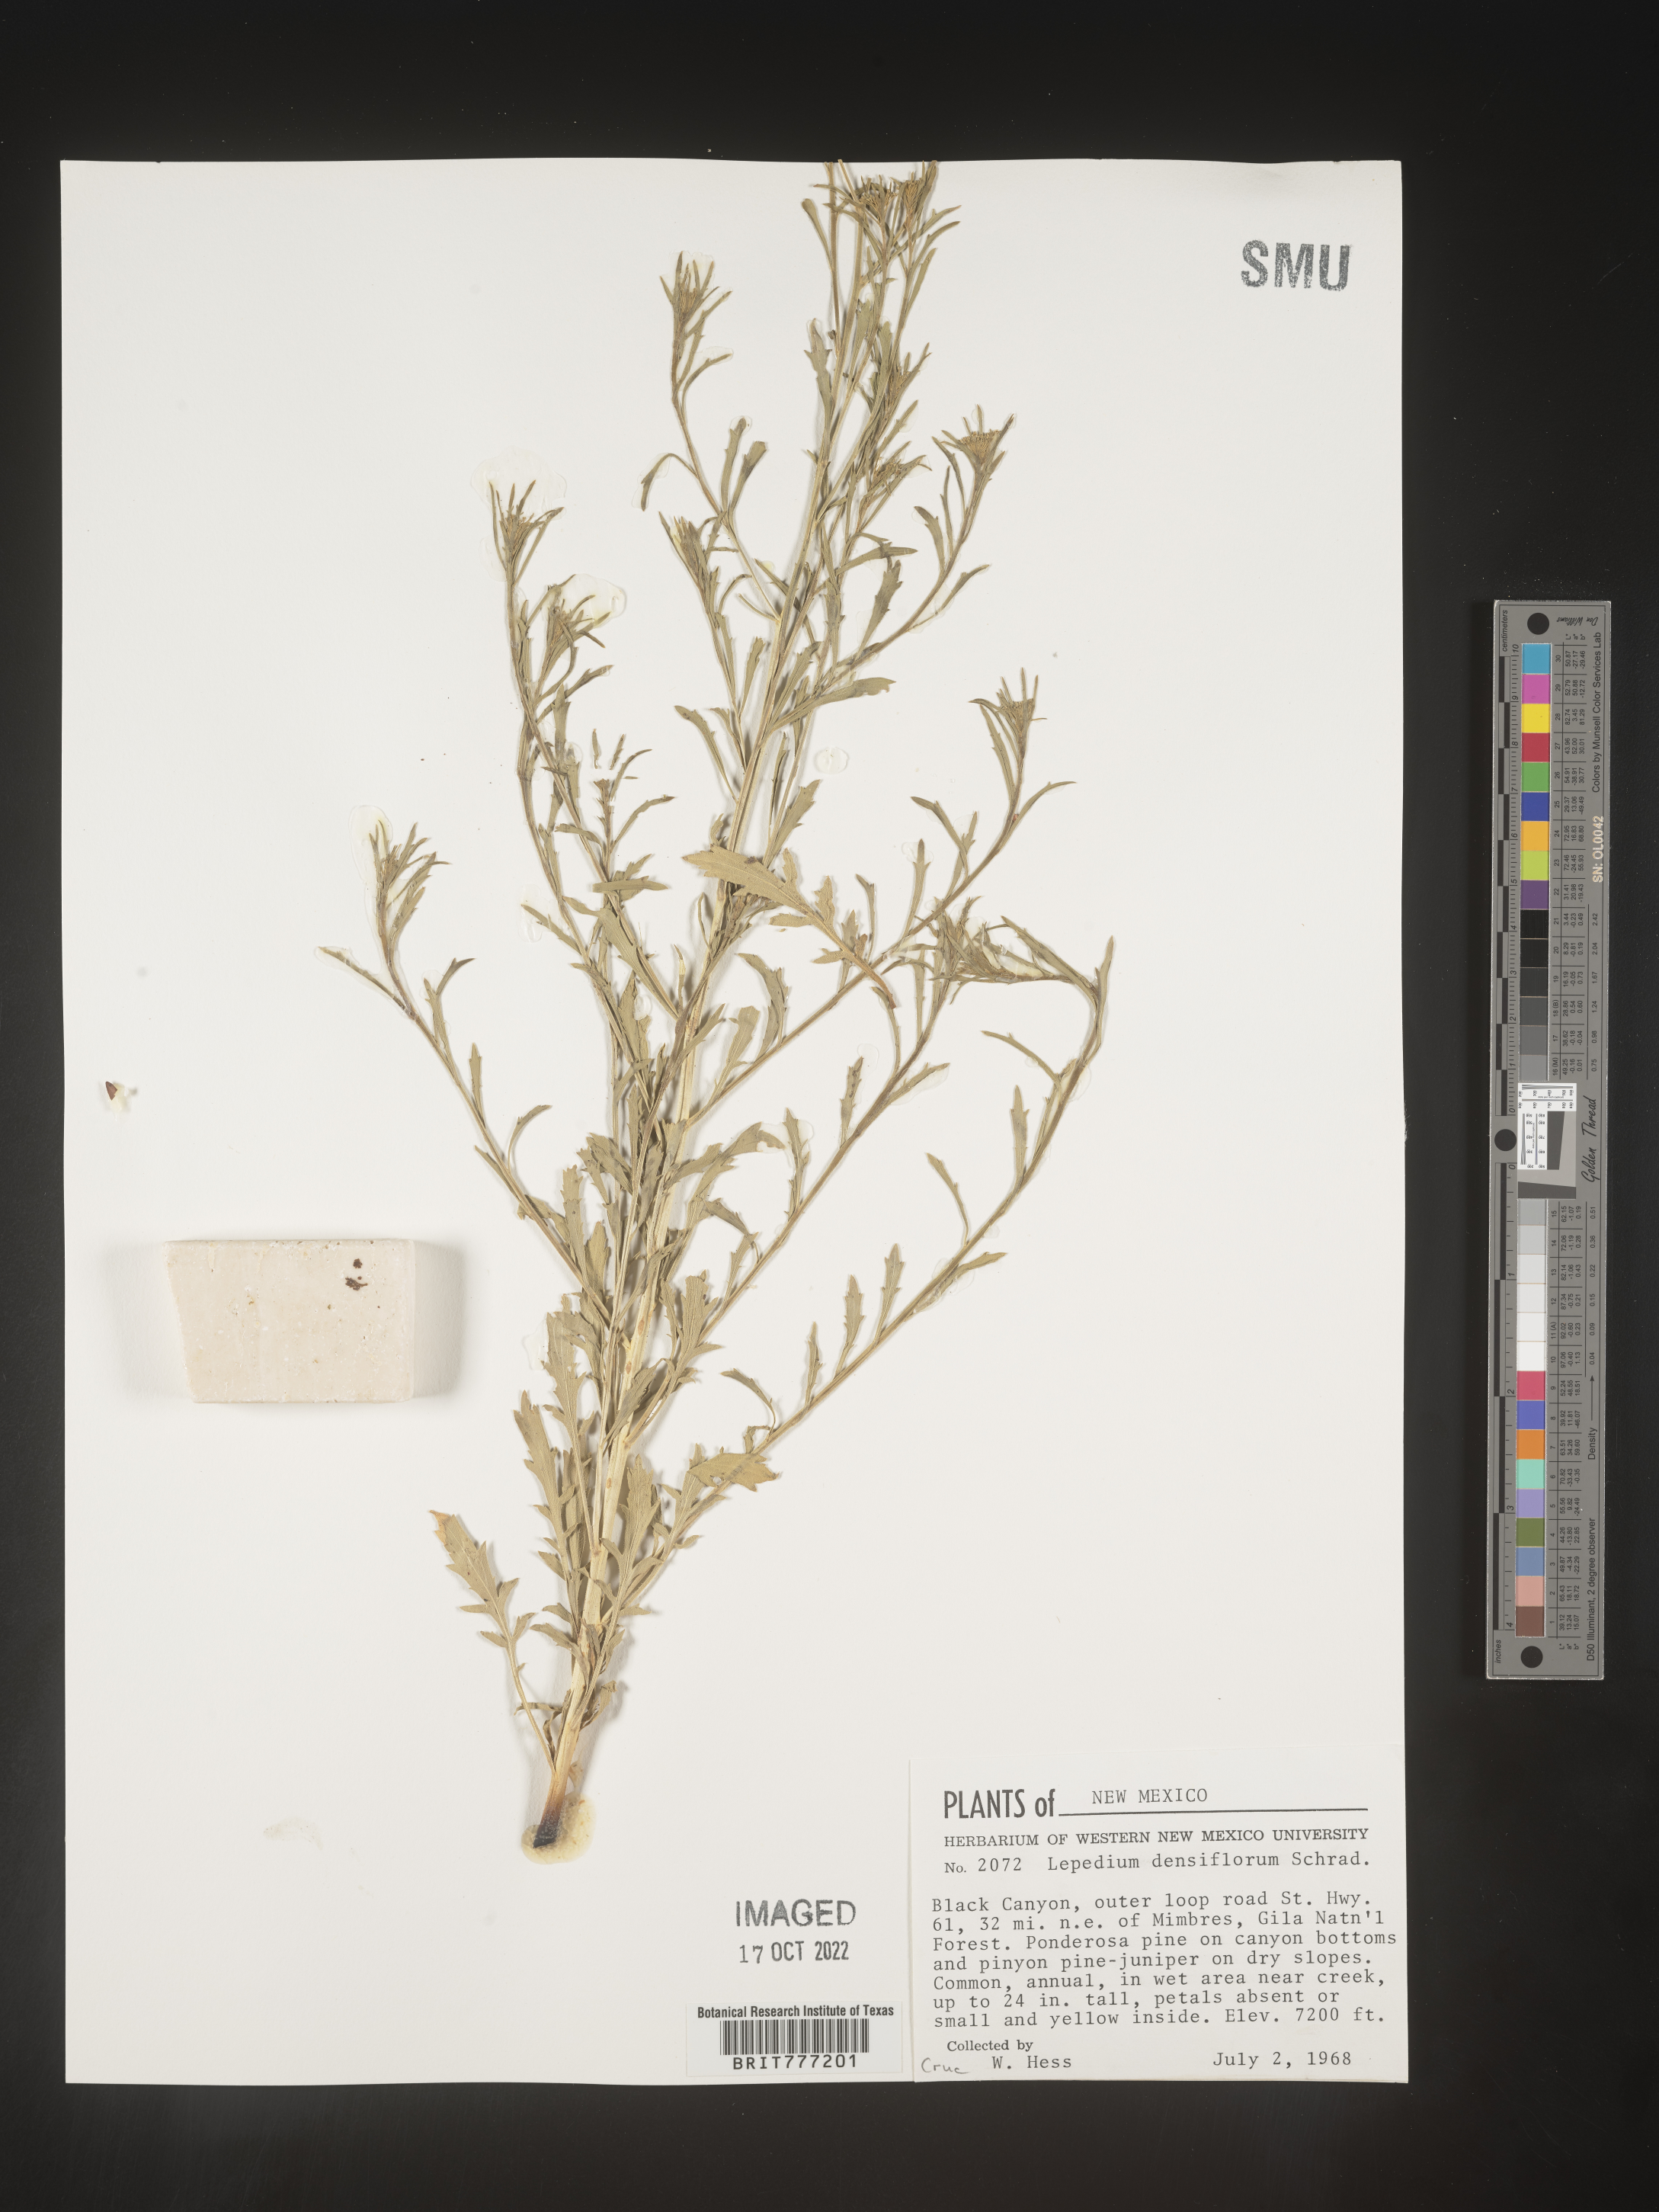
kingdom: Plantae
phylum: Tracheophyta
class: Magnoliopsida
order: Brassicales
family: Brassicaceae
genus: Lepidium
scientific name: Lepidium densiflorum
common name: Miner's pepperwort
